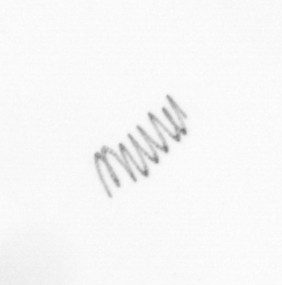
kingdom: Chromista
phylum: Ochrophyta
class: Bacillariophyceae
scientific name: Bacillariophyceae
